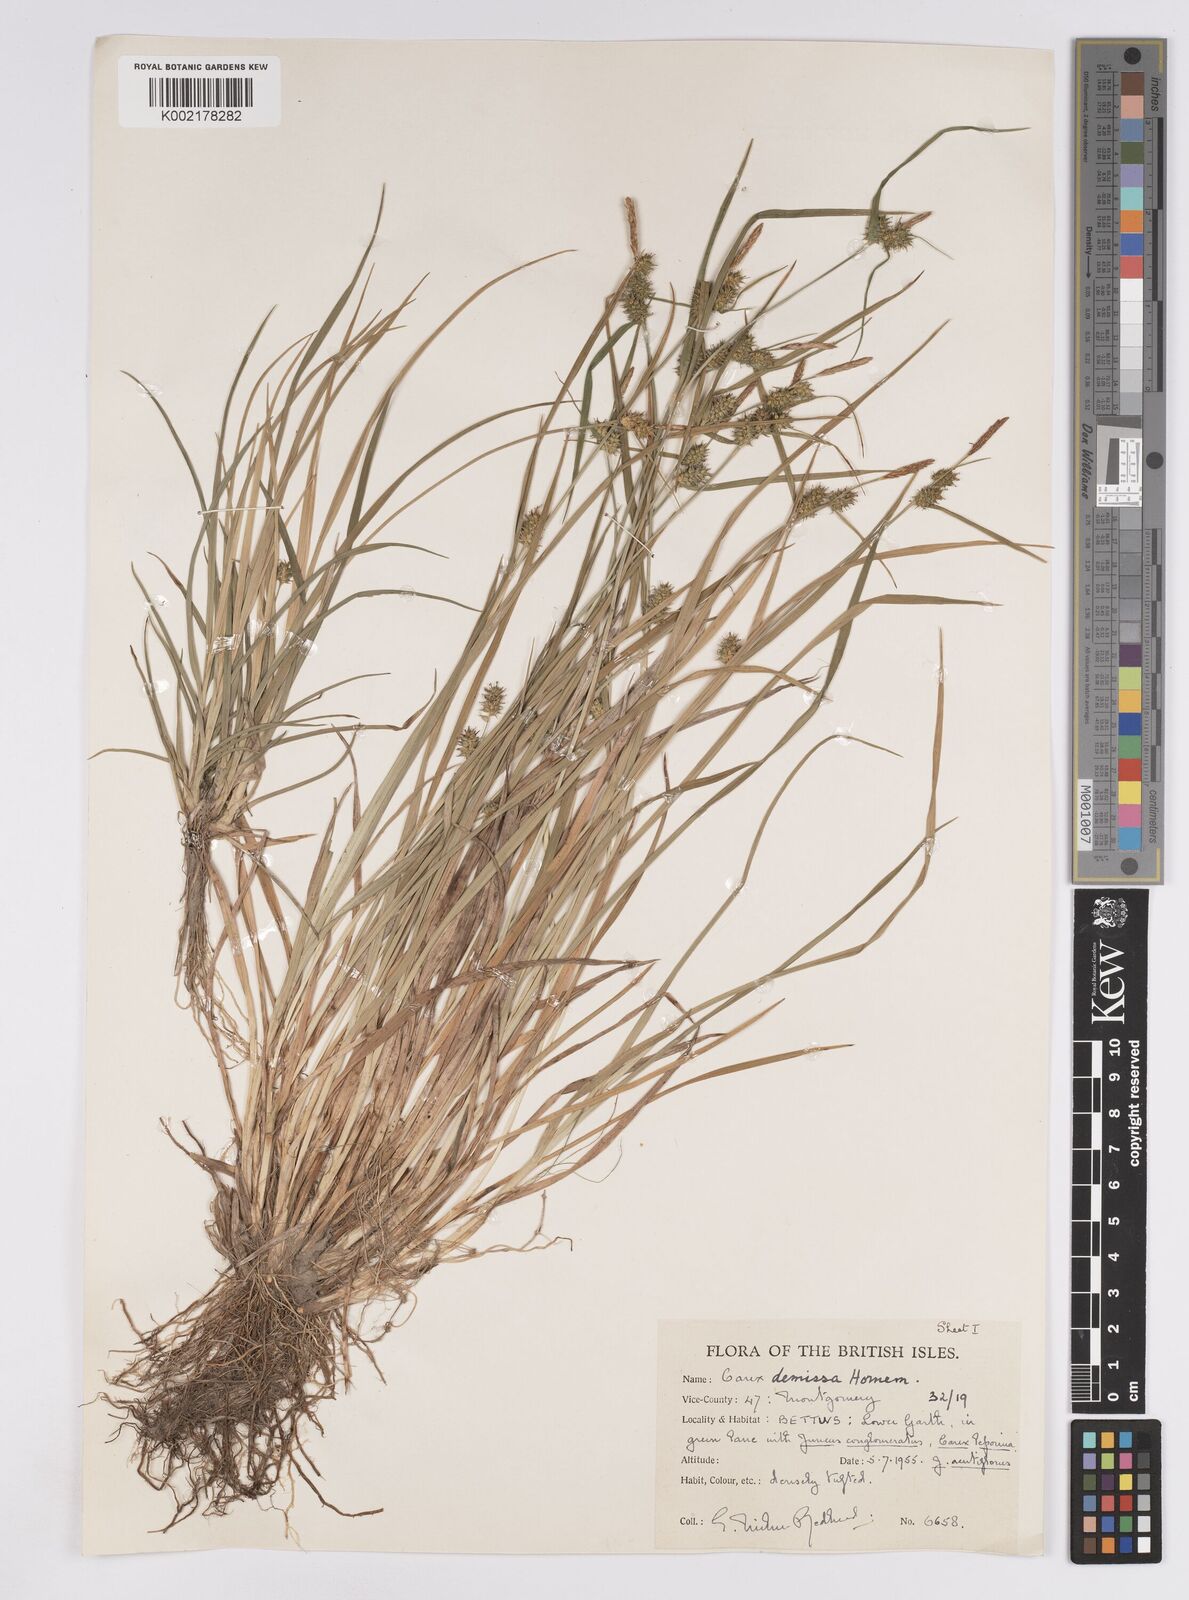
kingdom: Plantae
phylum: Tracheophyta
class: Liliopsida
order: Poales
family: Cyperaceae
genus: Carex
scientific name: Carex demissa
